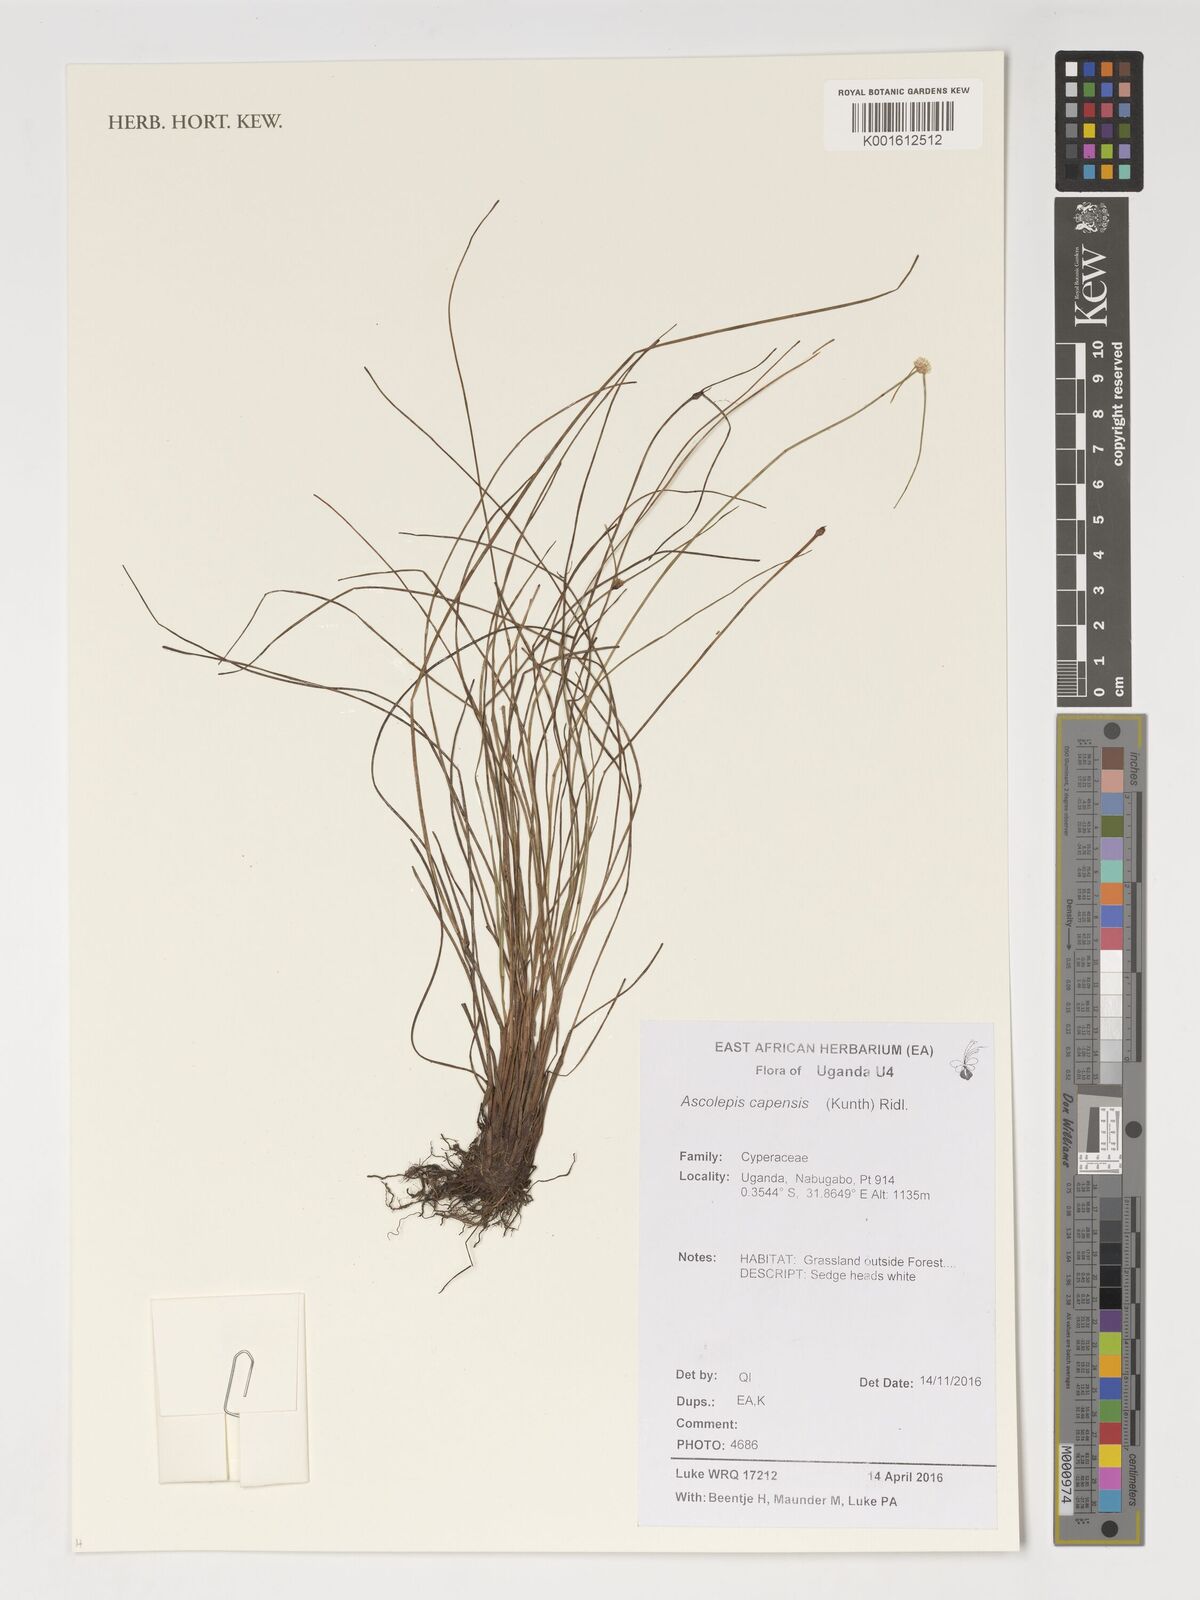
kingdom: Plantae
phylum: Tracheophyta
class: Liliopsida
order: Poales
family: Cyperaceae
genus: Cyperus
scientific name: Cyperus ascocapensis
